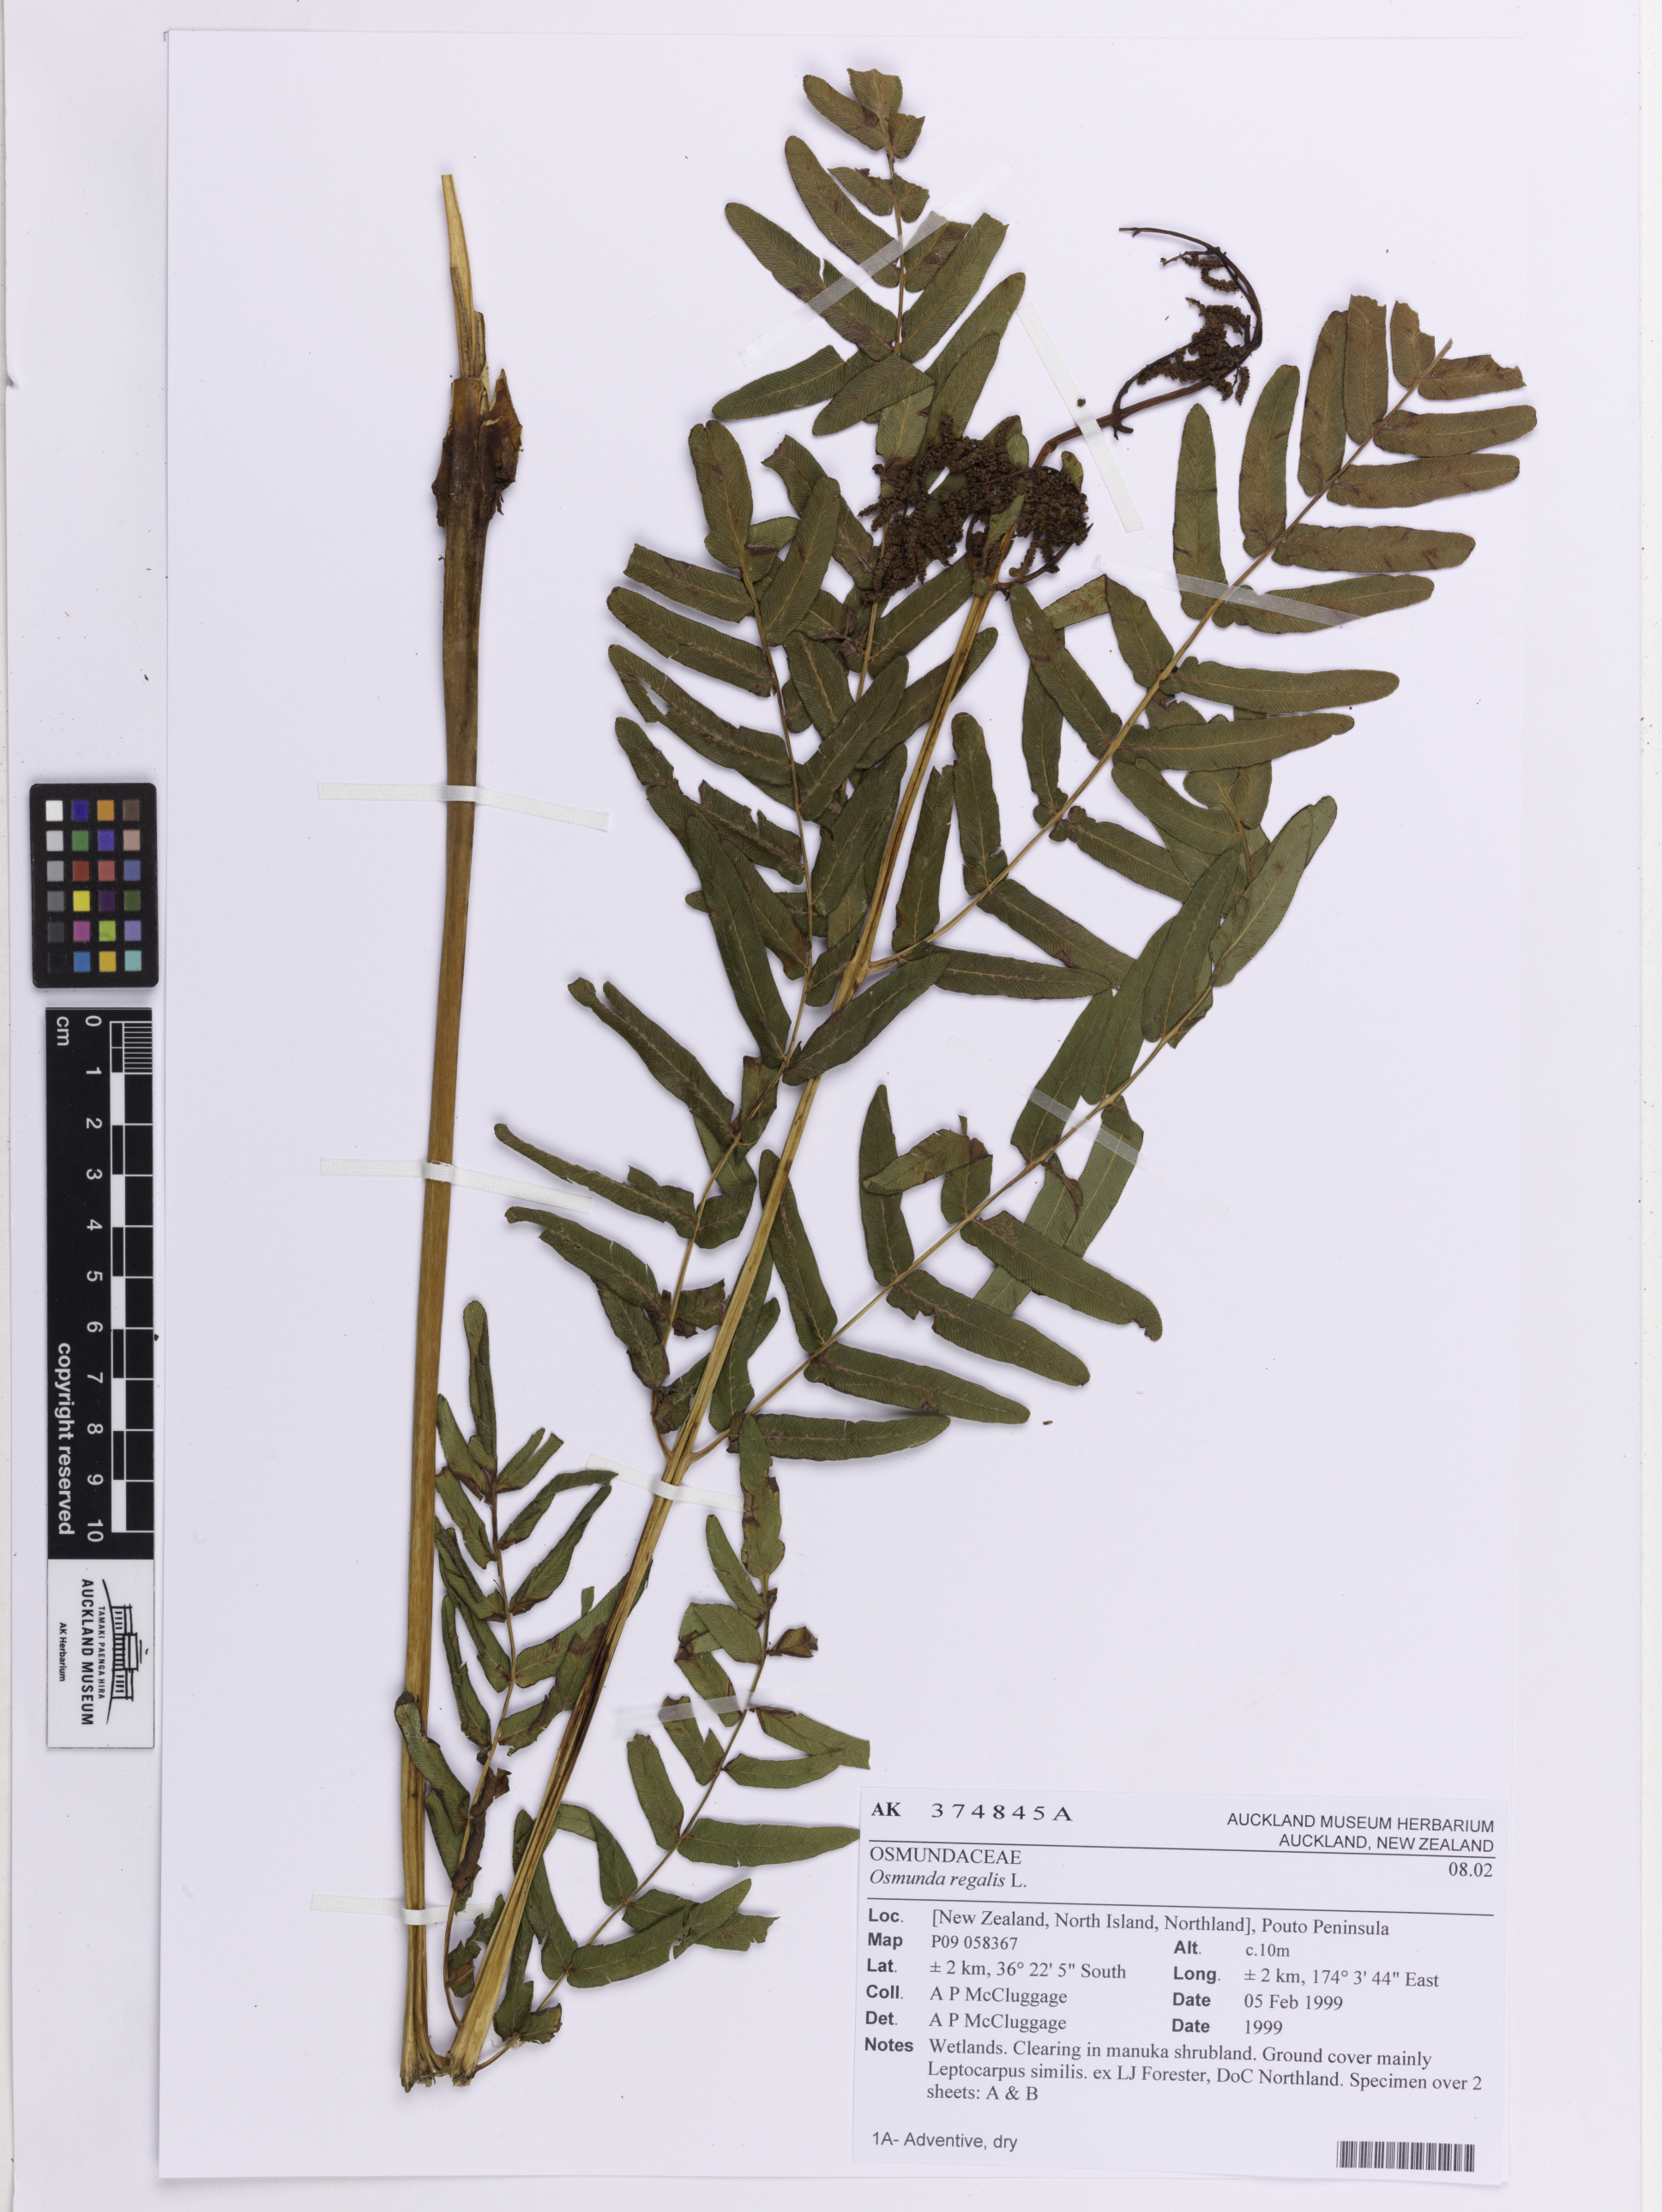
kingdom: Plantae
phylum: Tracheophyta
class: Polypodiopsida
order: Osmundales
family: Osmundaceae
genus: Osmunda
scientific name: Osmunda regalis
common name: Royal fern
